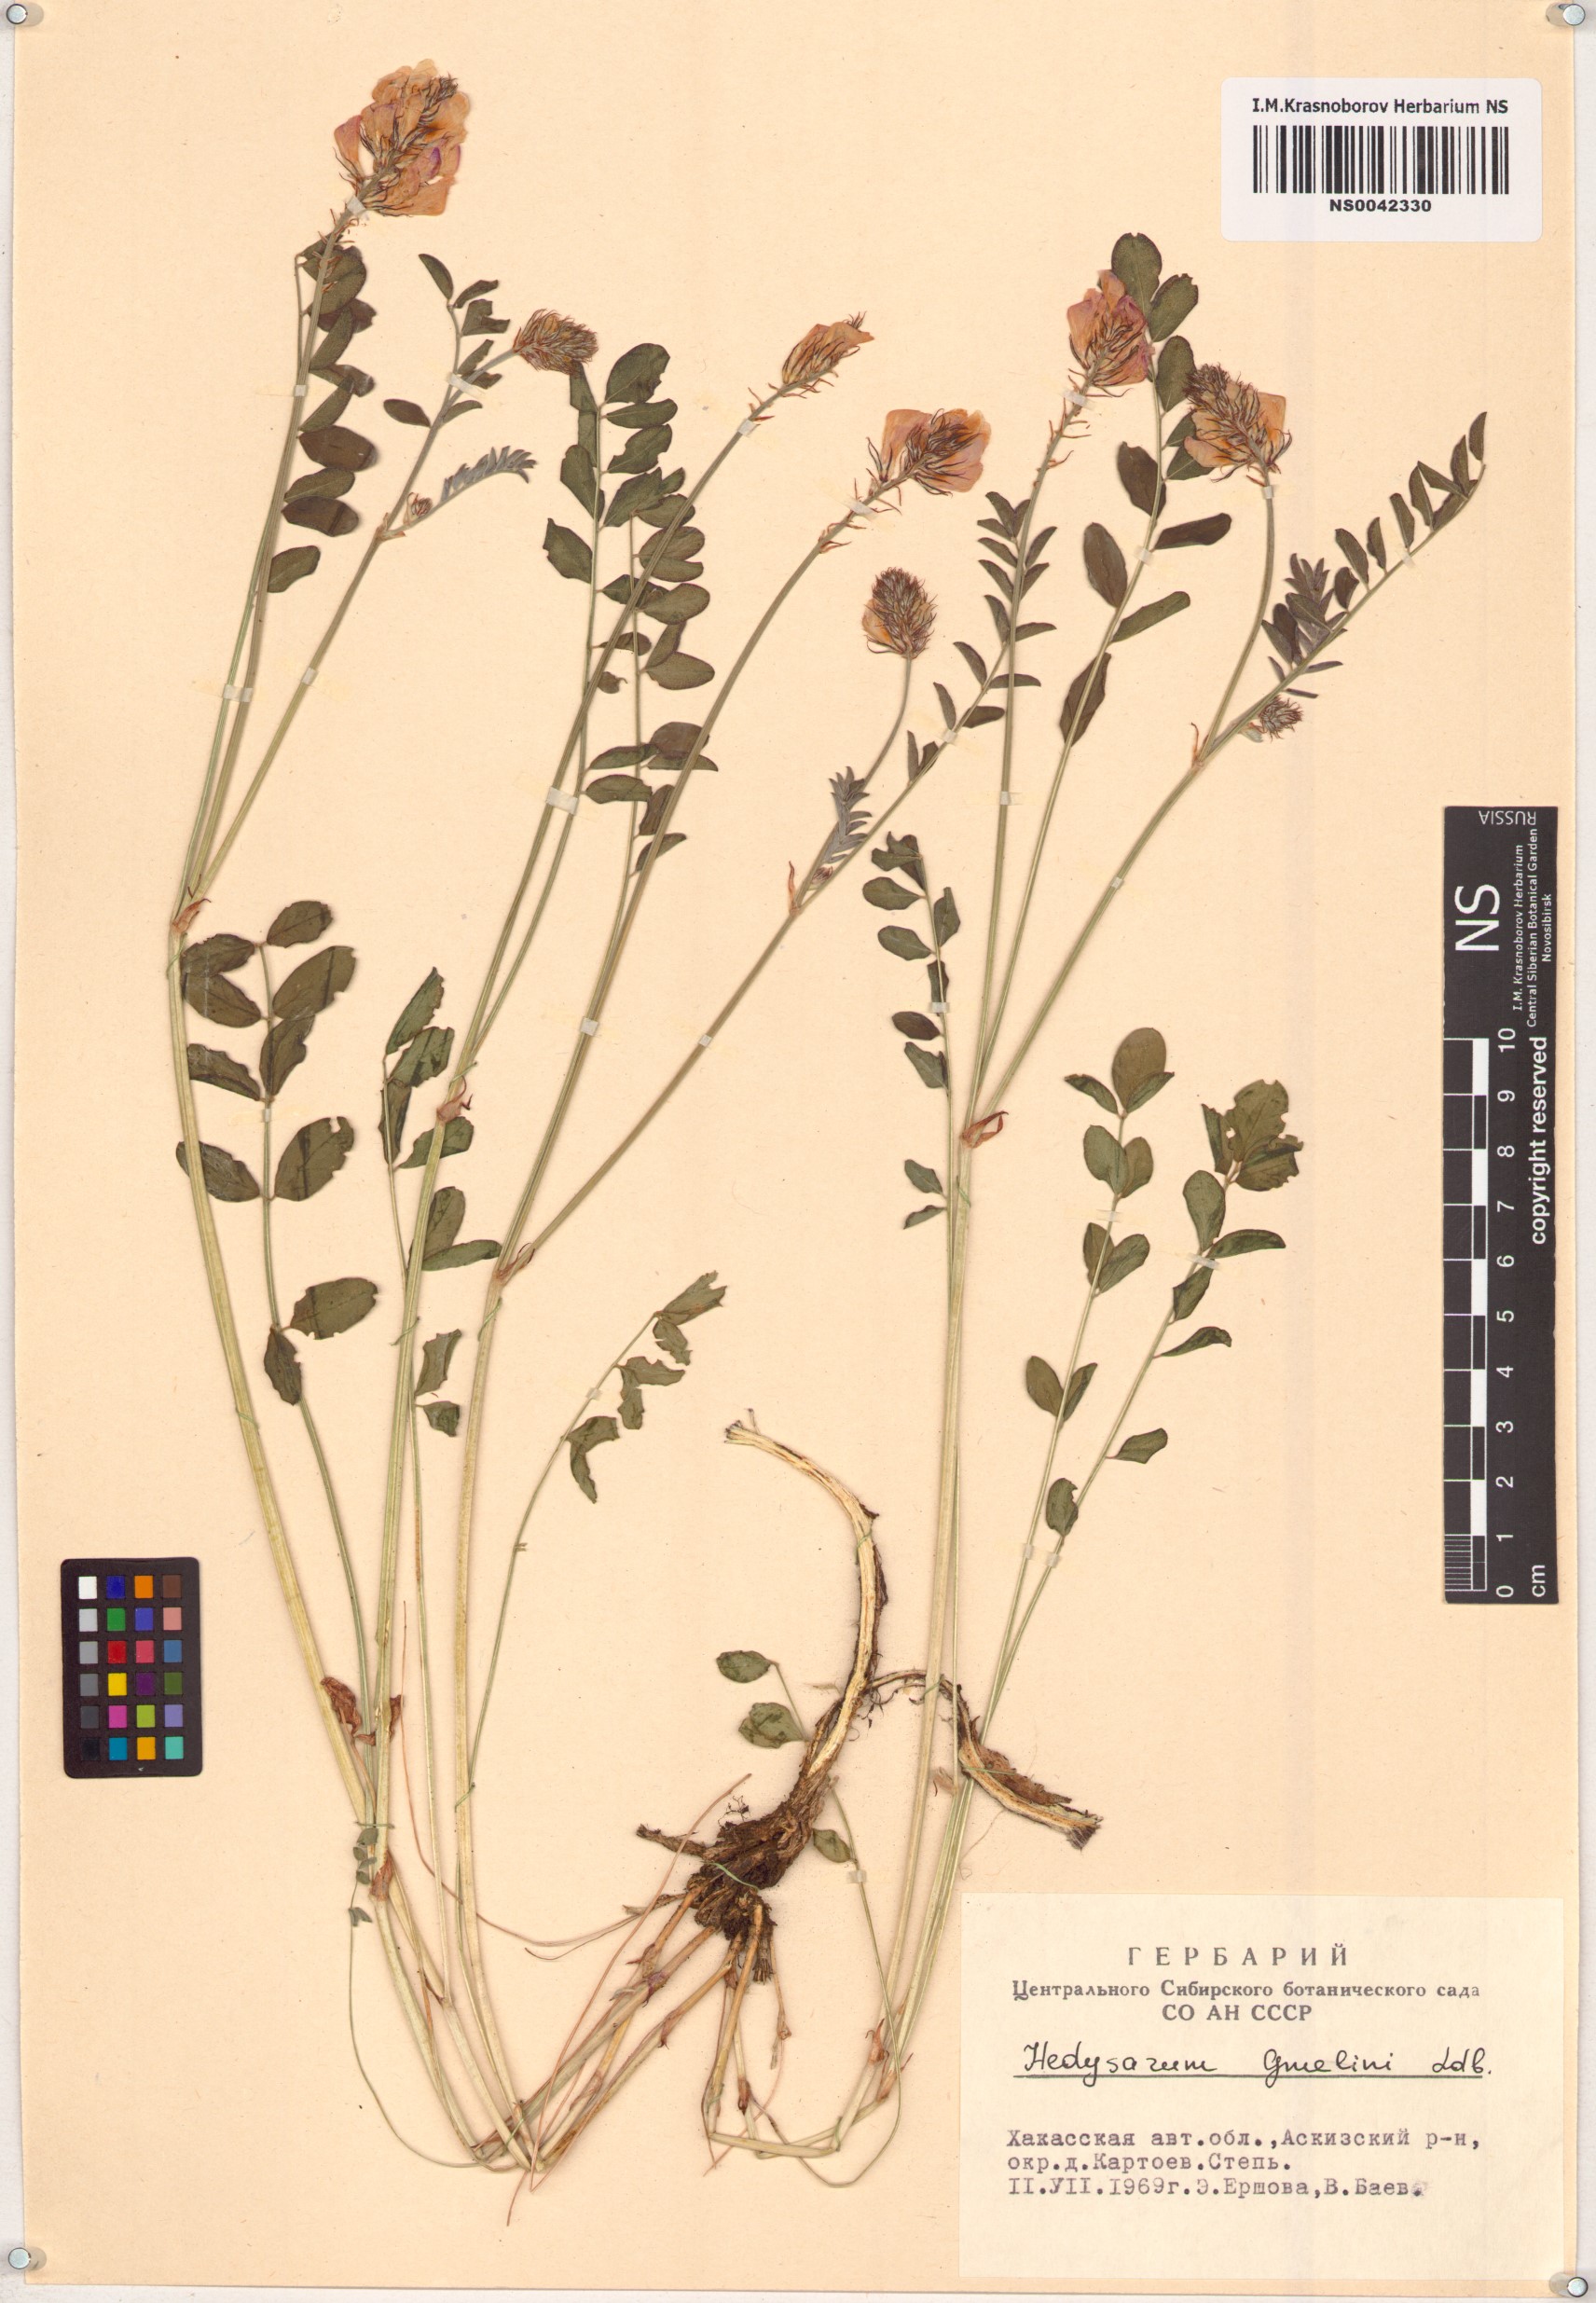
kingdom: Plantae
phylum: Tracheophyta
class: Magnoliopsida
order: Fabales
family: Fabaceae
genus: Hedysarum
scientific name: Hedysarum gmelinii
